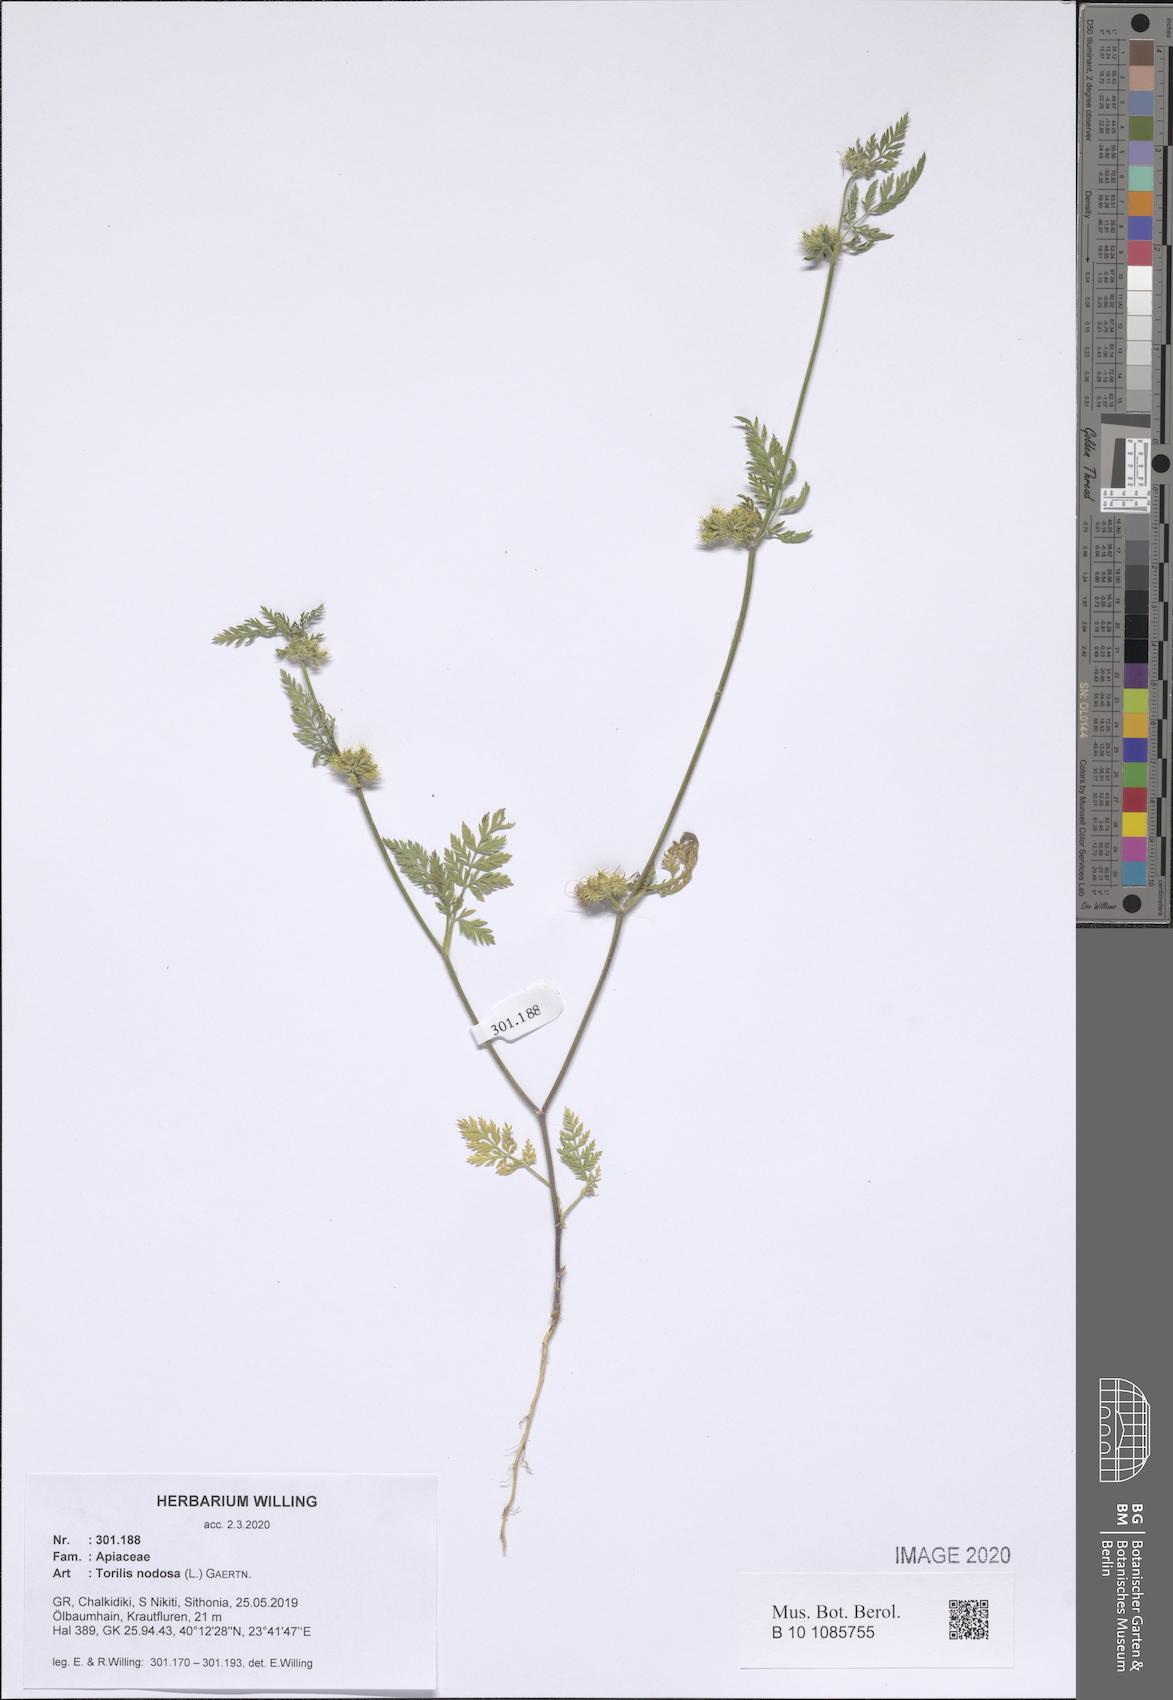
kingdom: Plantae
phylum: Tracheophyta
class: Magnoliopsida
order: Apiales
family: Apiaceae
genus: Torilis
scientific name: Torilis nodosa
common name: Knotted hedge-parsley
